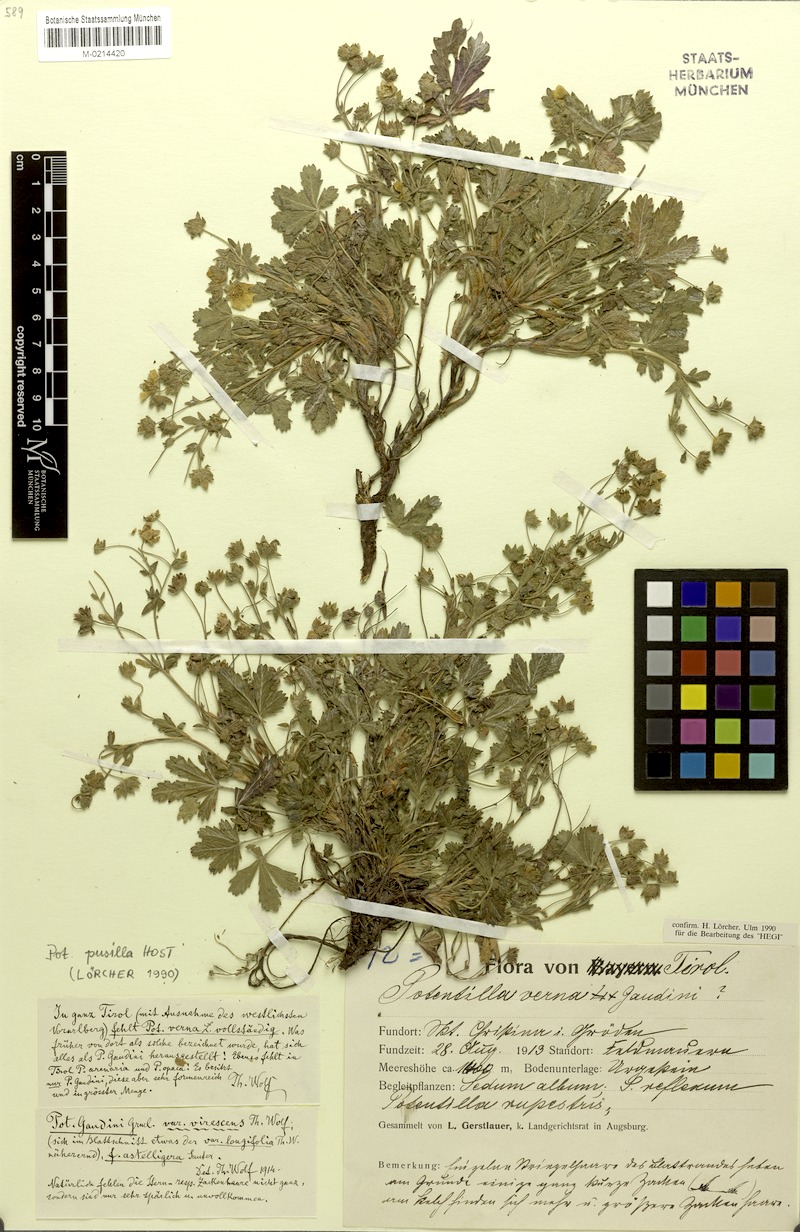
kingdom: Plantae
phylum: Tracheophyta
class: Magnoliopsida
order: Rosales
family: Rosaceae
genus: Potentilla
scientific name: Potentilla pusilla
